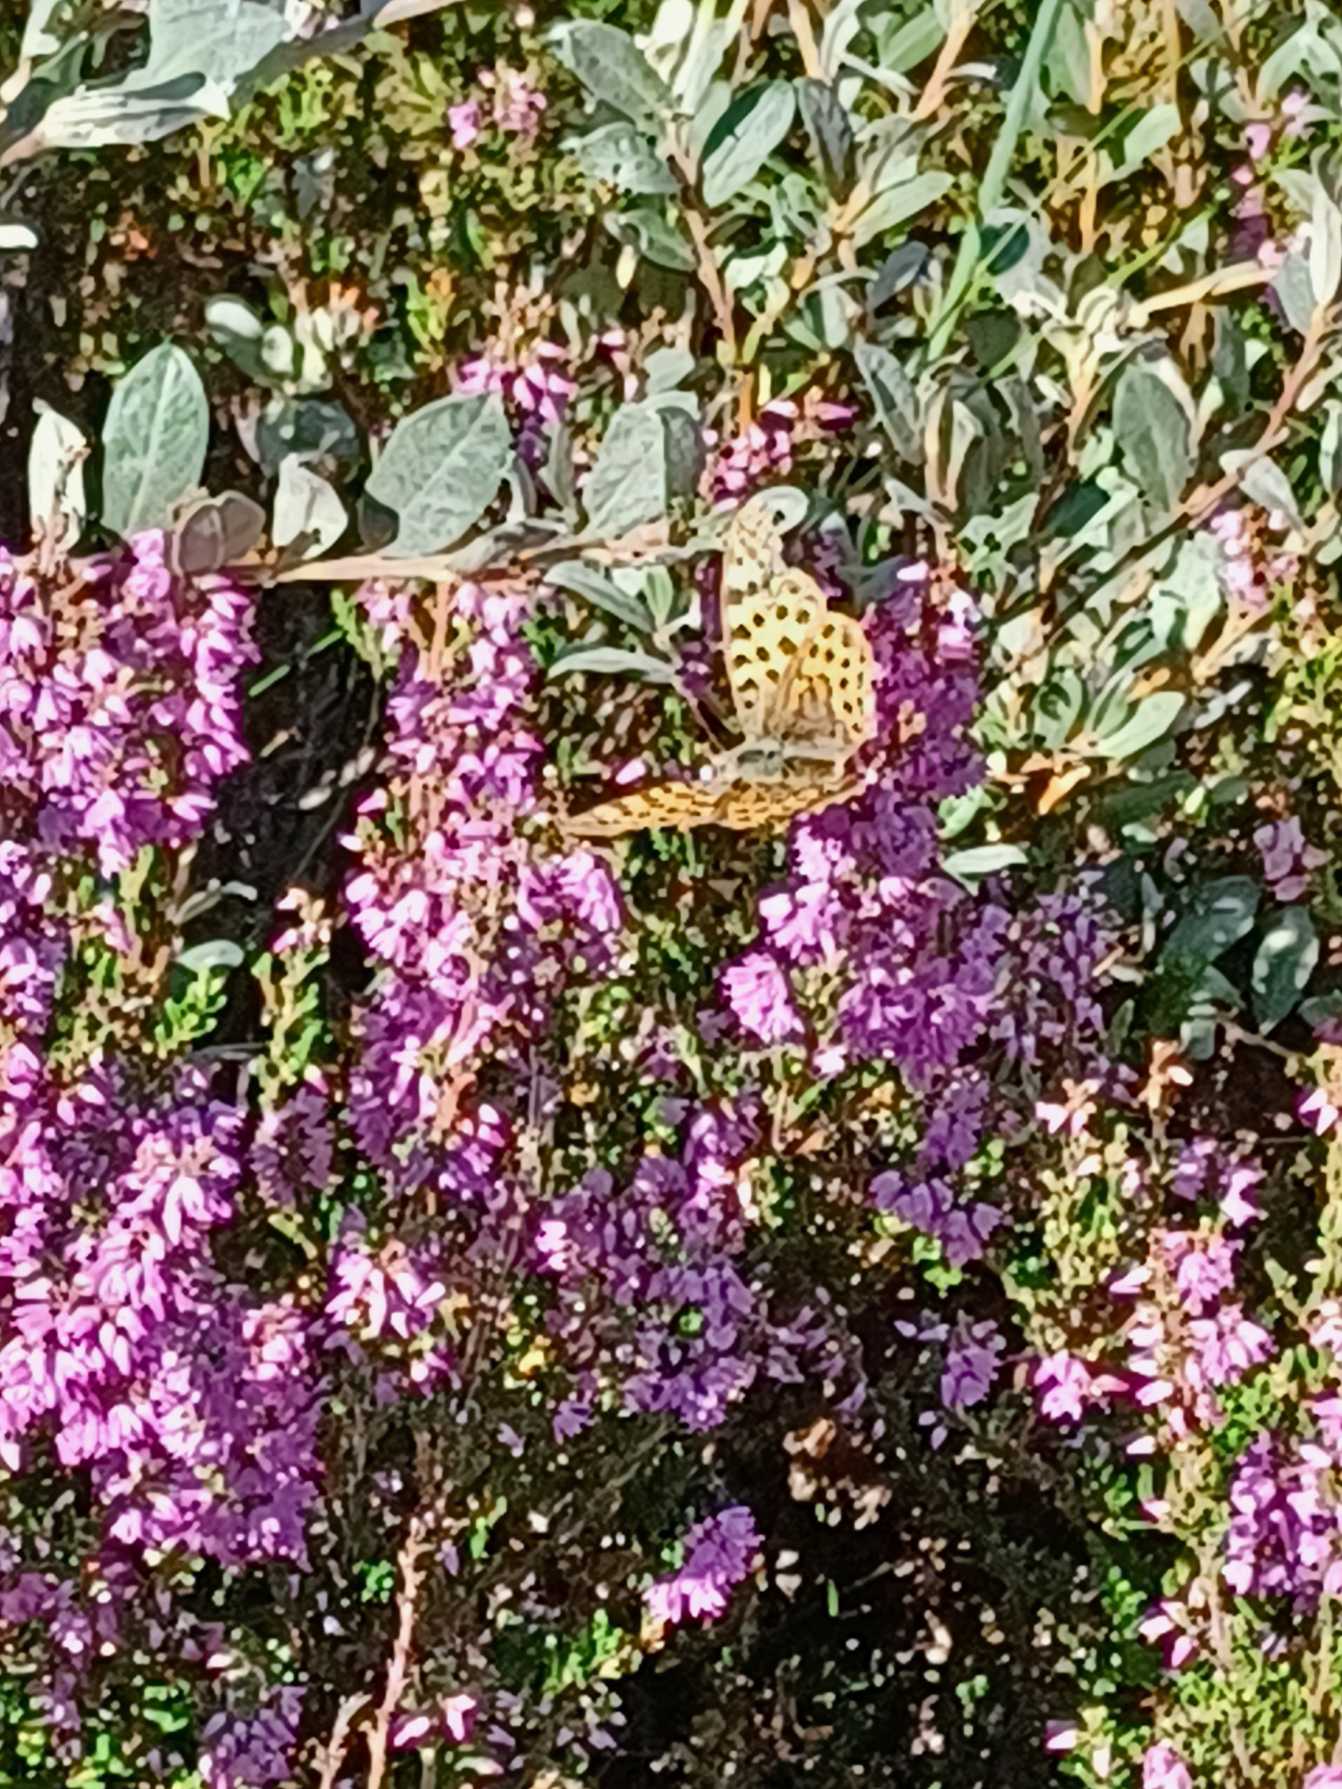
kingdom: Animalia
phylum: Arthropoda
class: Insecta
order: Lepidoptera
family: Nymphalidae
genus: Issoria
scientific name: Issoria lathonia
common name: Storplettet perlemorsommerfugl
